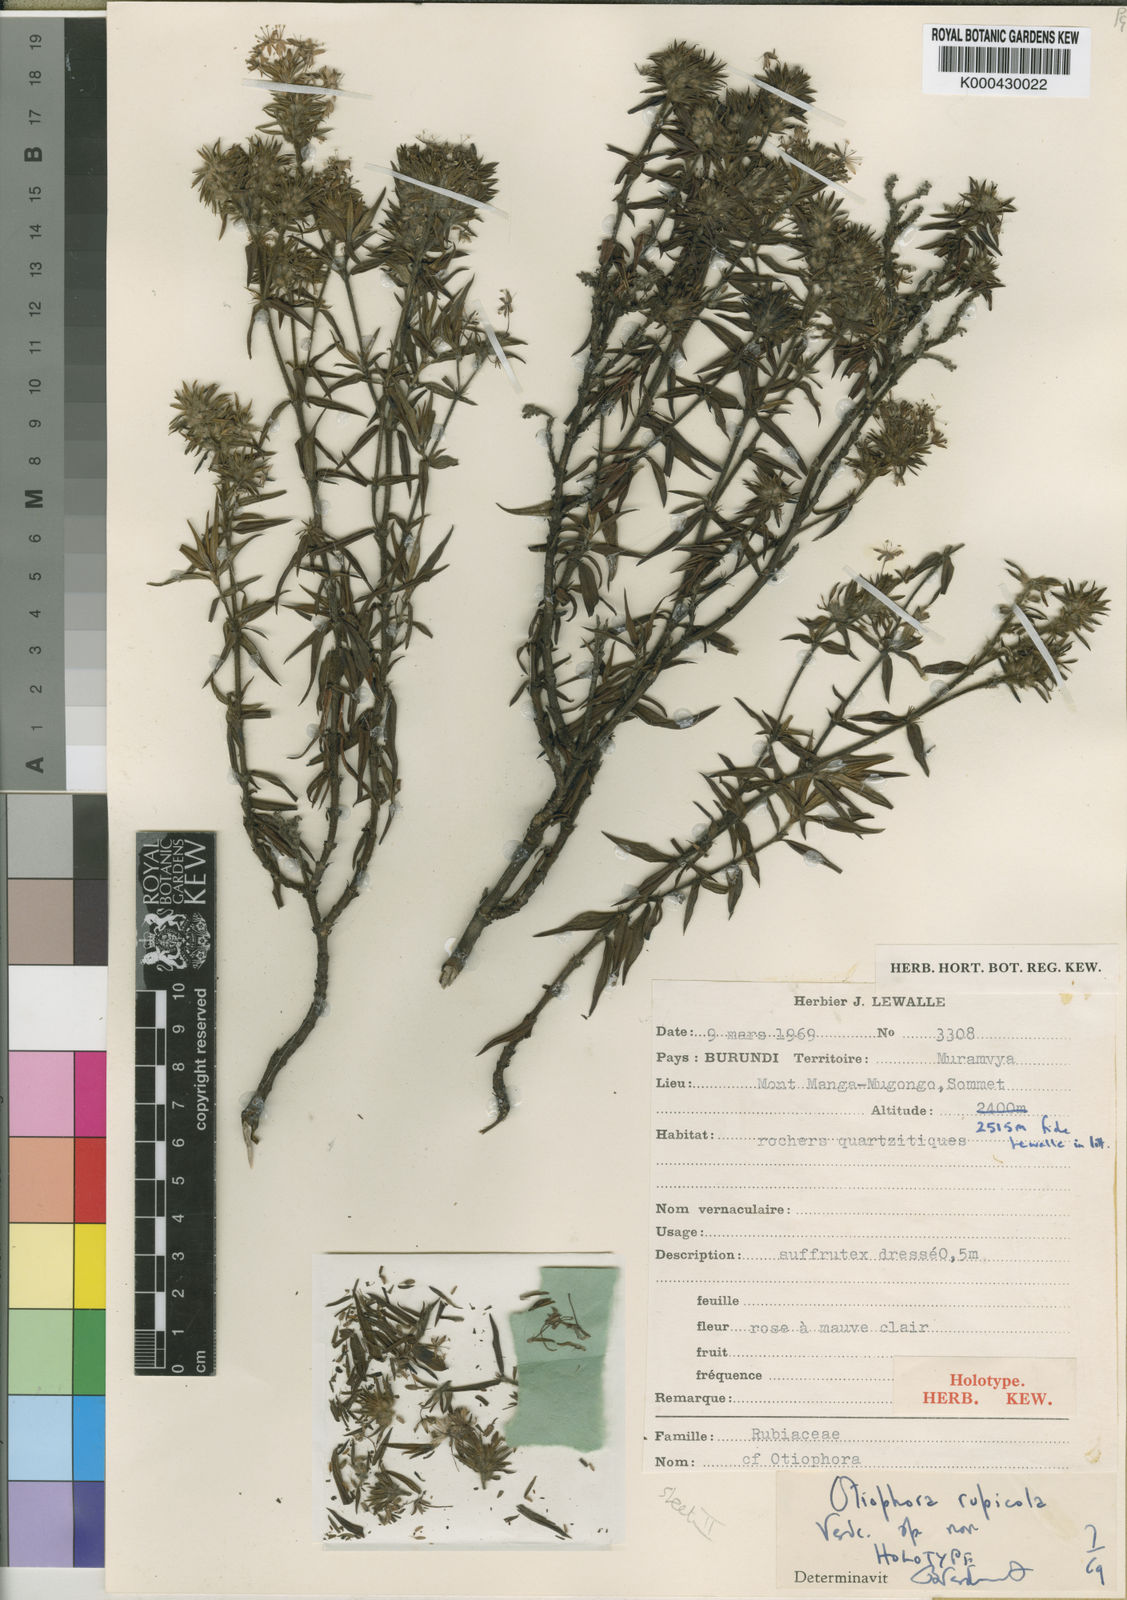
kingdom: Plantae
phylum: Tracheophyta
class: Magnoliopsida
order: Gentianales
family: Rubiaceae
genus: Otiophora
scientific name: Otiophora rupicola
